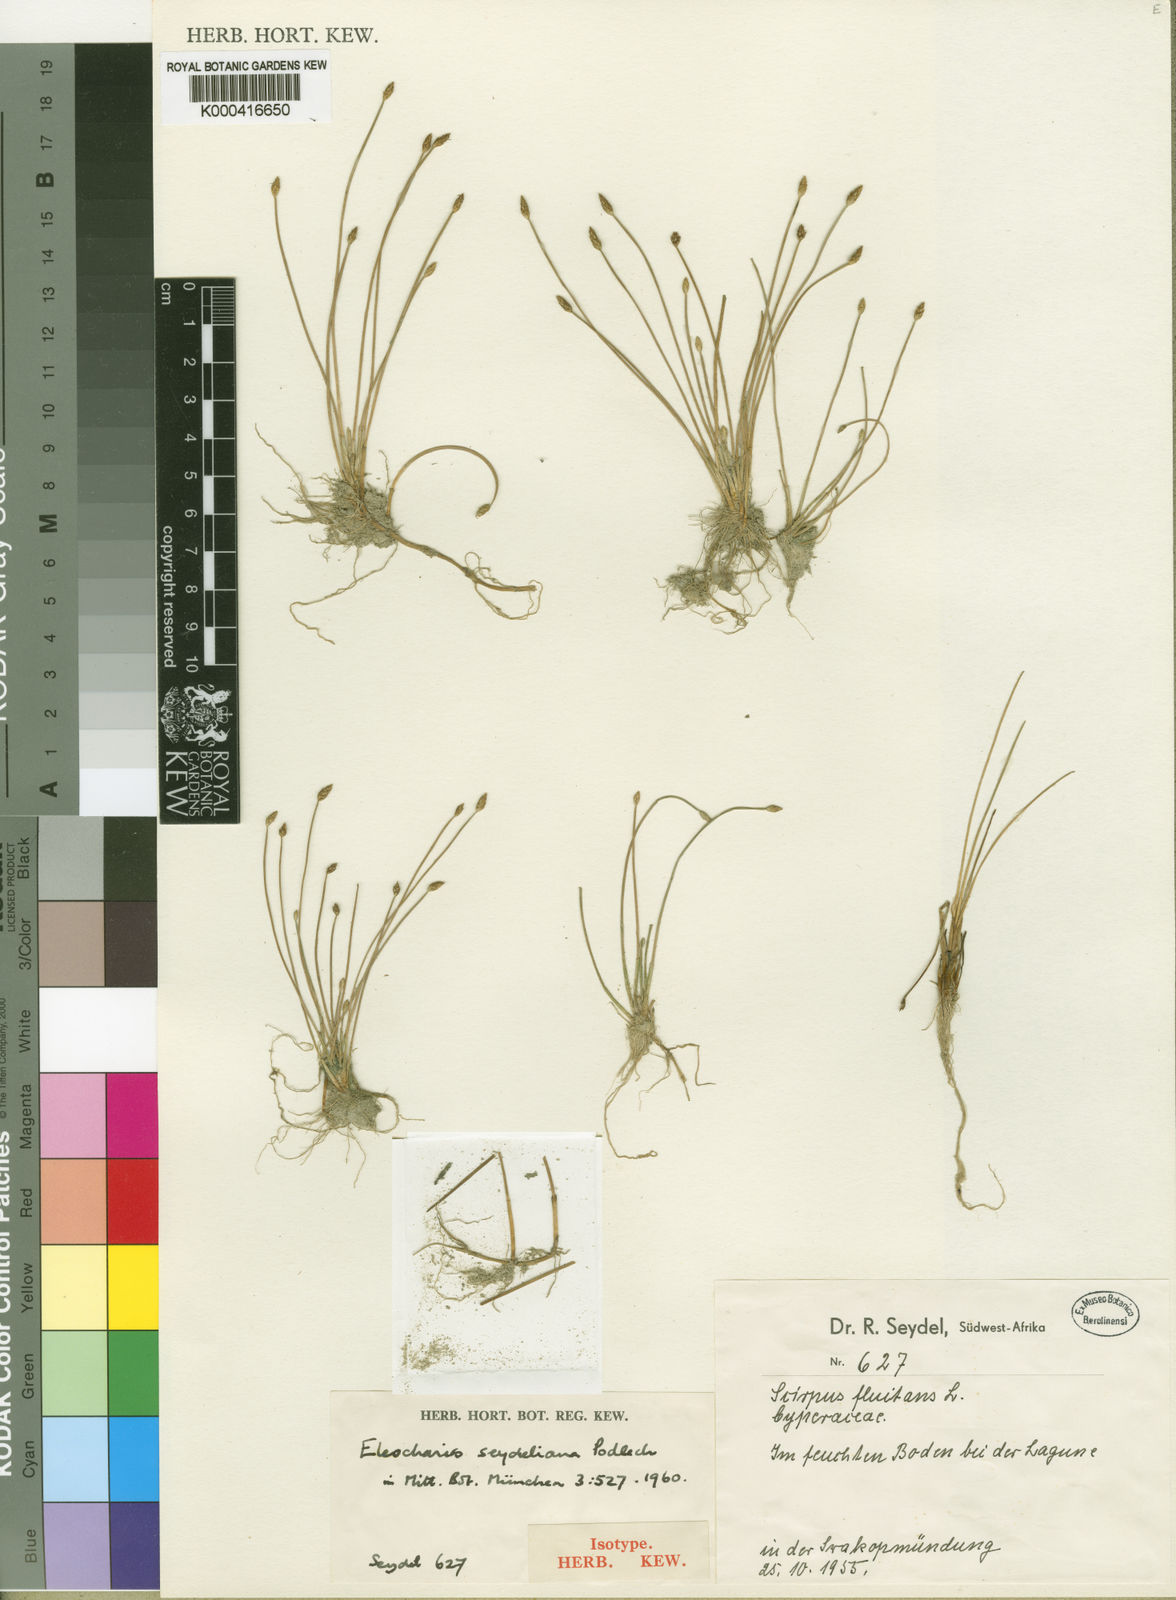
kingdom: Plantae
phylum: Tracheophyta
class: Liliopsida
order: Poales
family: Cyperaceae
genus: Eleocharis
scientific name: Eleocharis schlechteri
